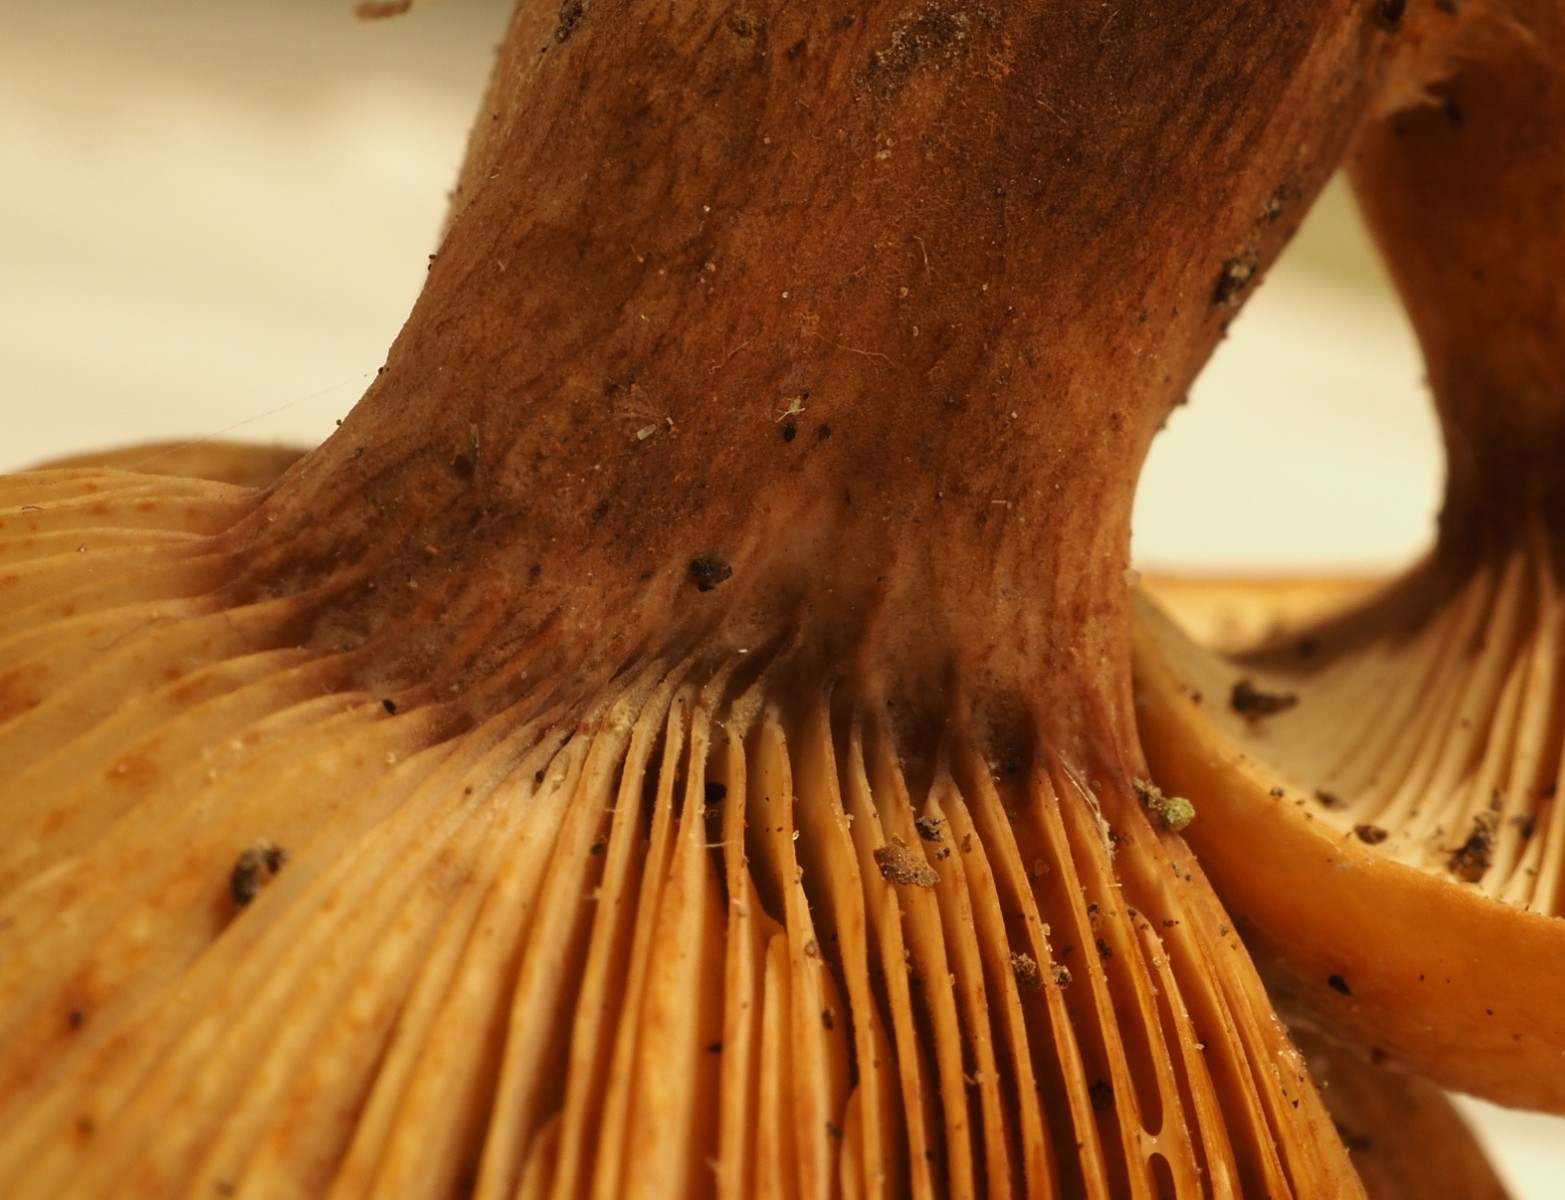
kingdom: Fungi
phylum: Basidiomycota
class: Agaricomycetes
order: Russulales
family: Russulaceae
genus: Lactarius
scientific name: Lactarius rubrocinctus
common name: halsbånd-mælkehat
